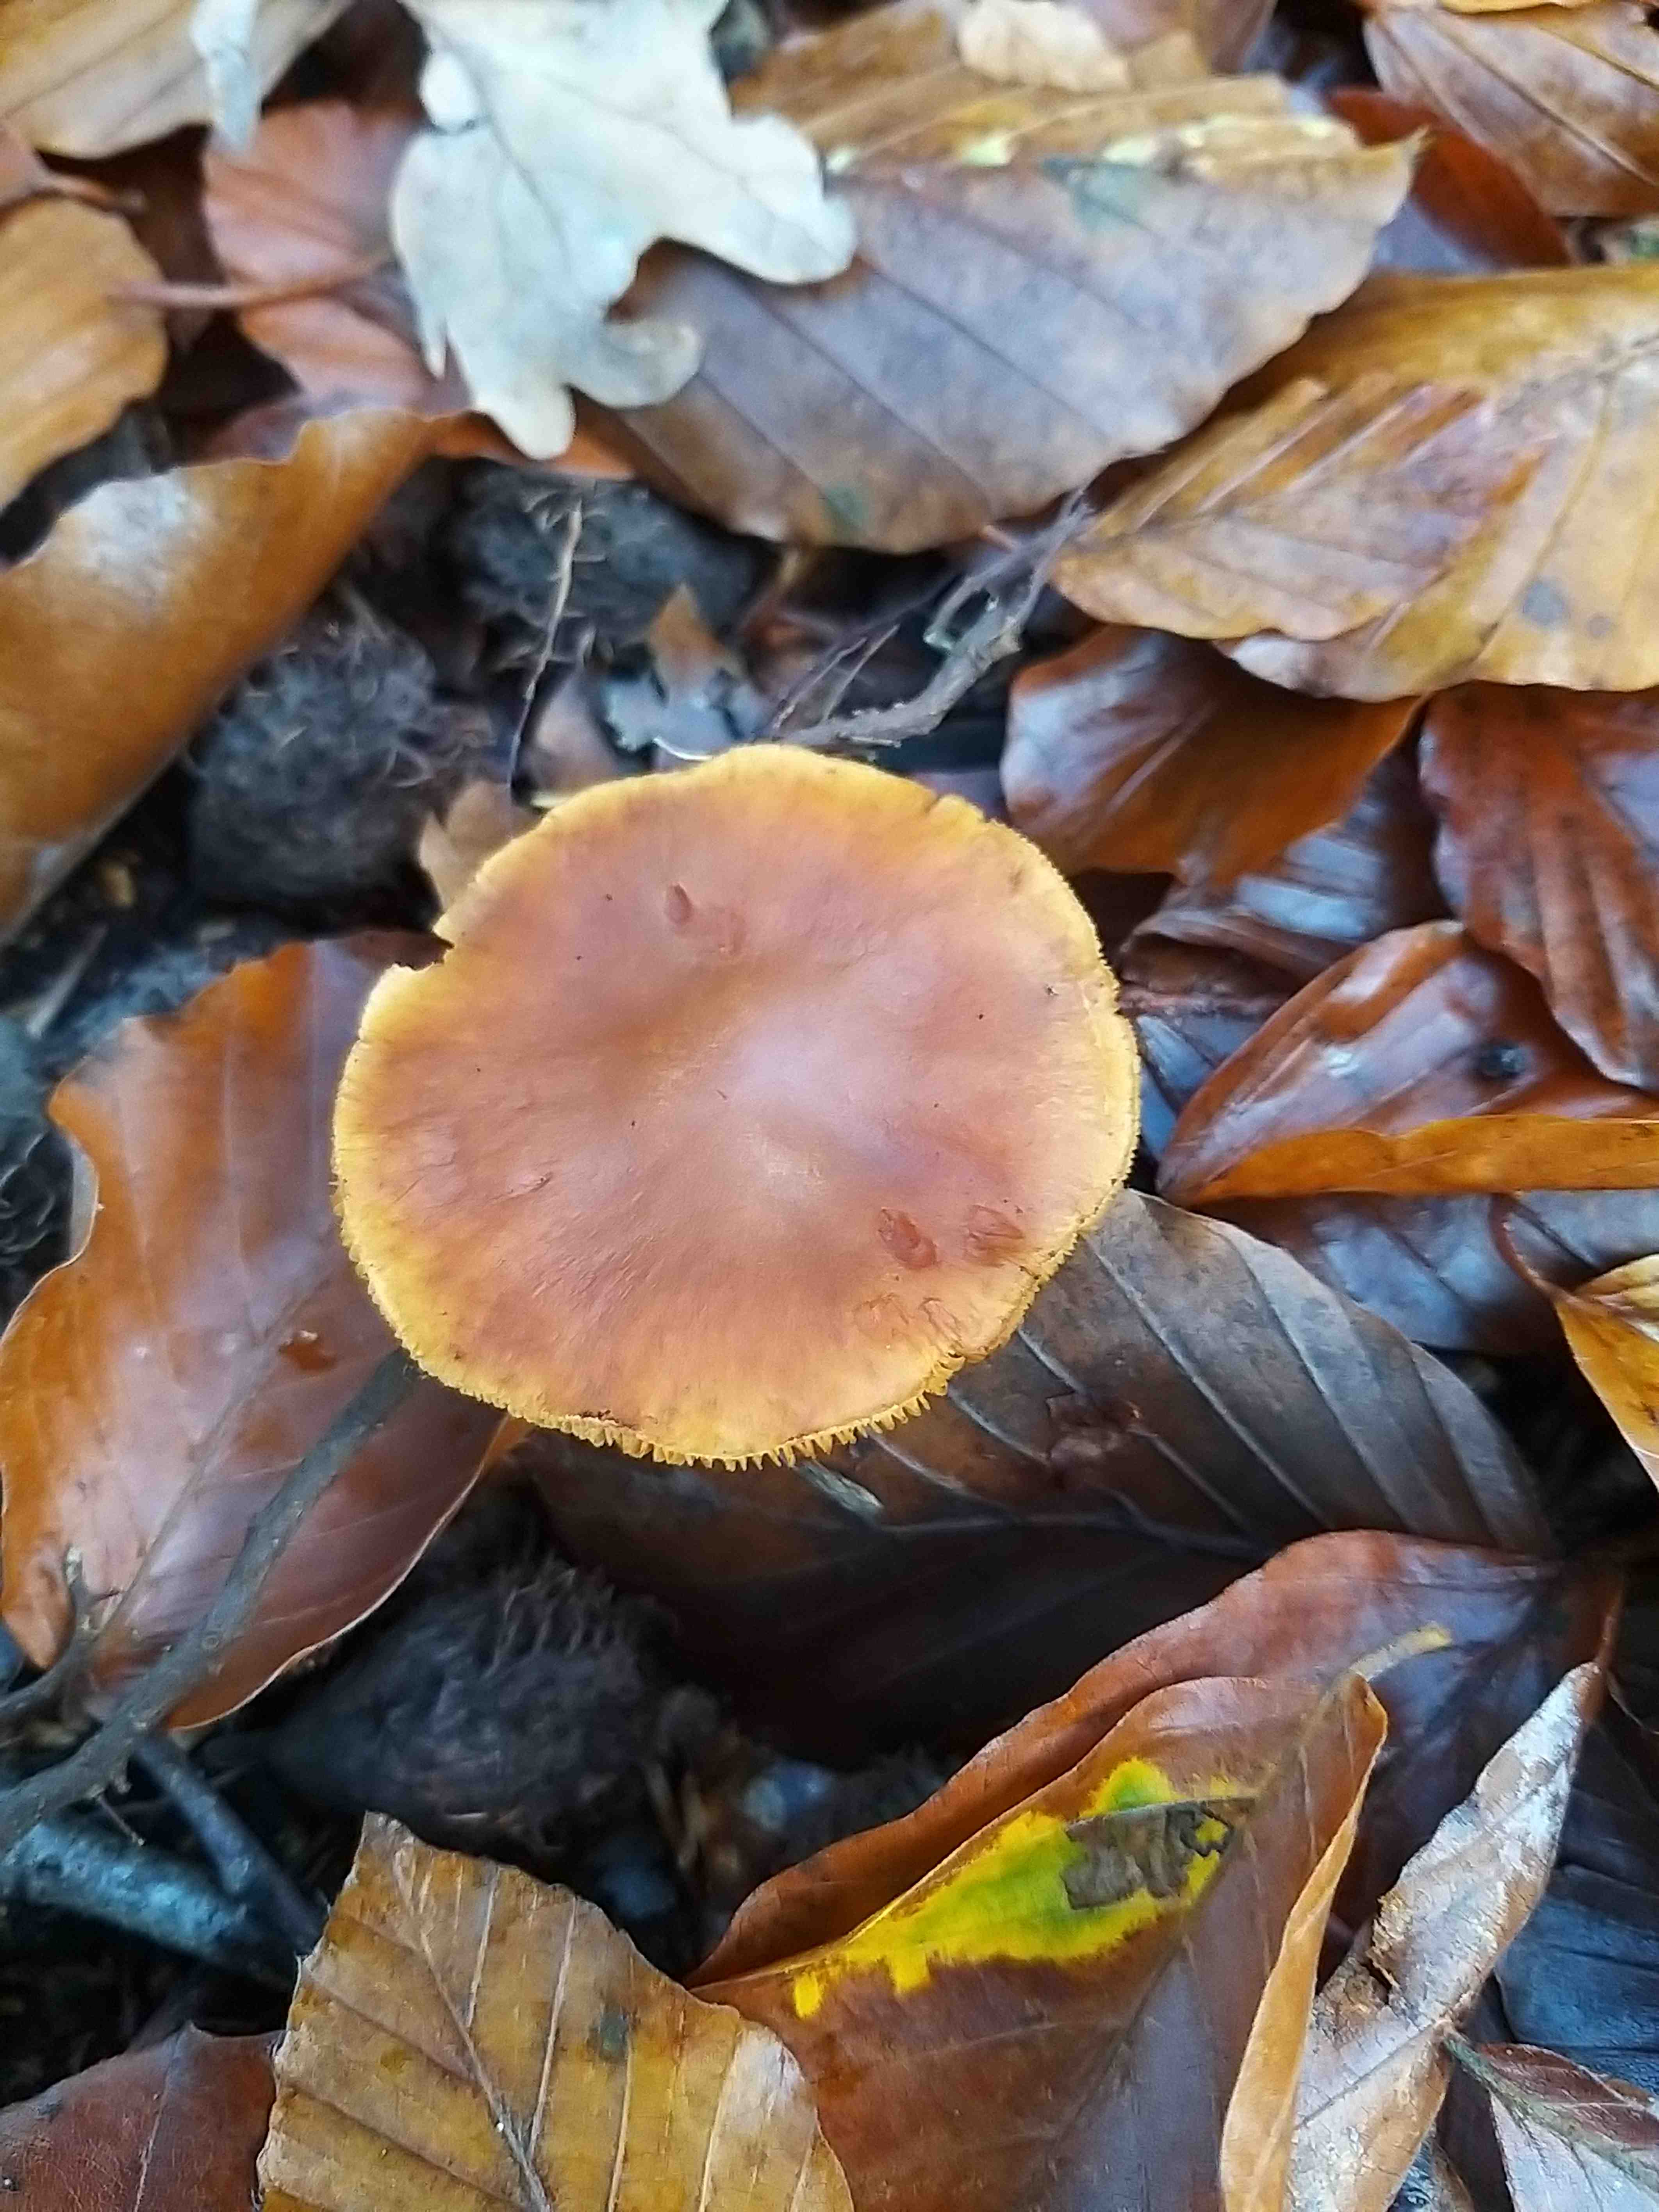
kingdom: Fungi
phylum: Basidiomycota
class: Agaricomycetes
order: Agaricales
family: Hymenogastraceae
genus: Gymnopilus
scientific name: Gymnopilus penetrans
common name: plettet flammehat
